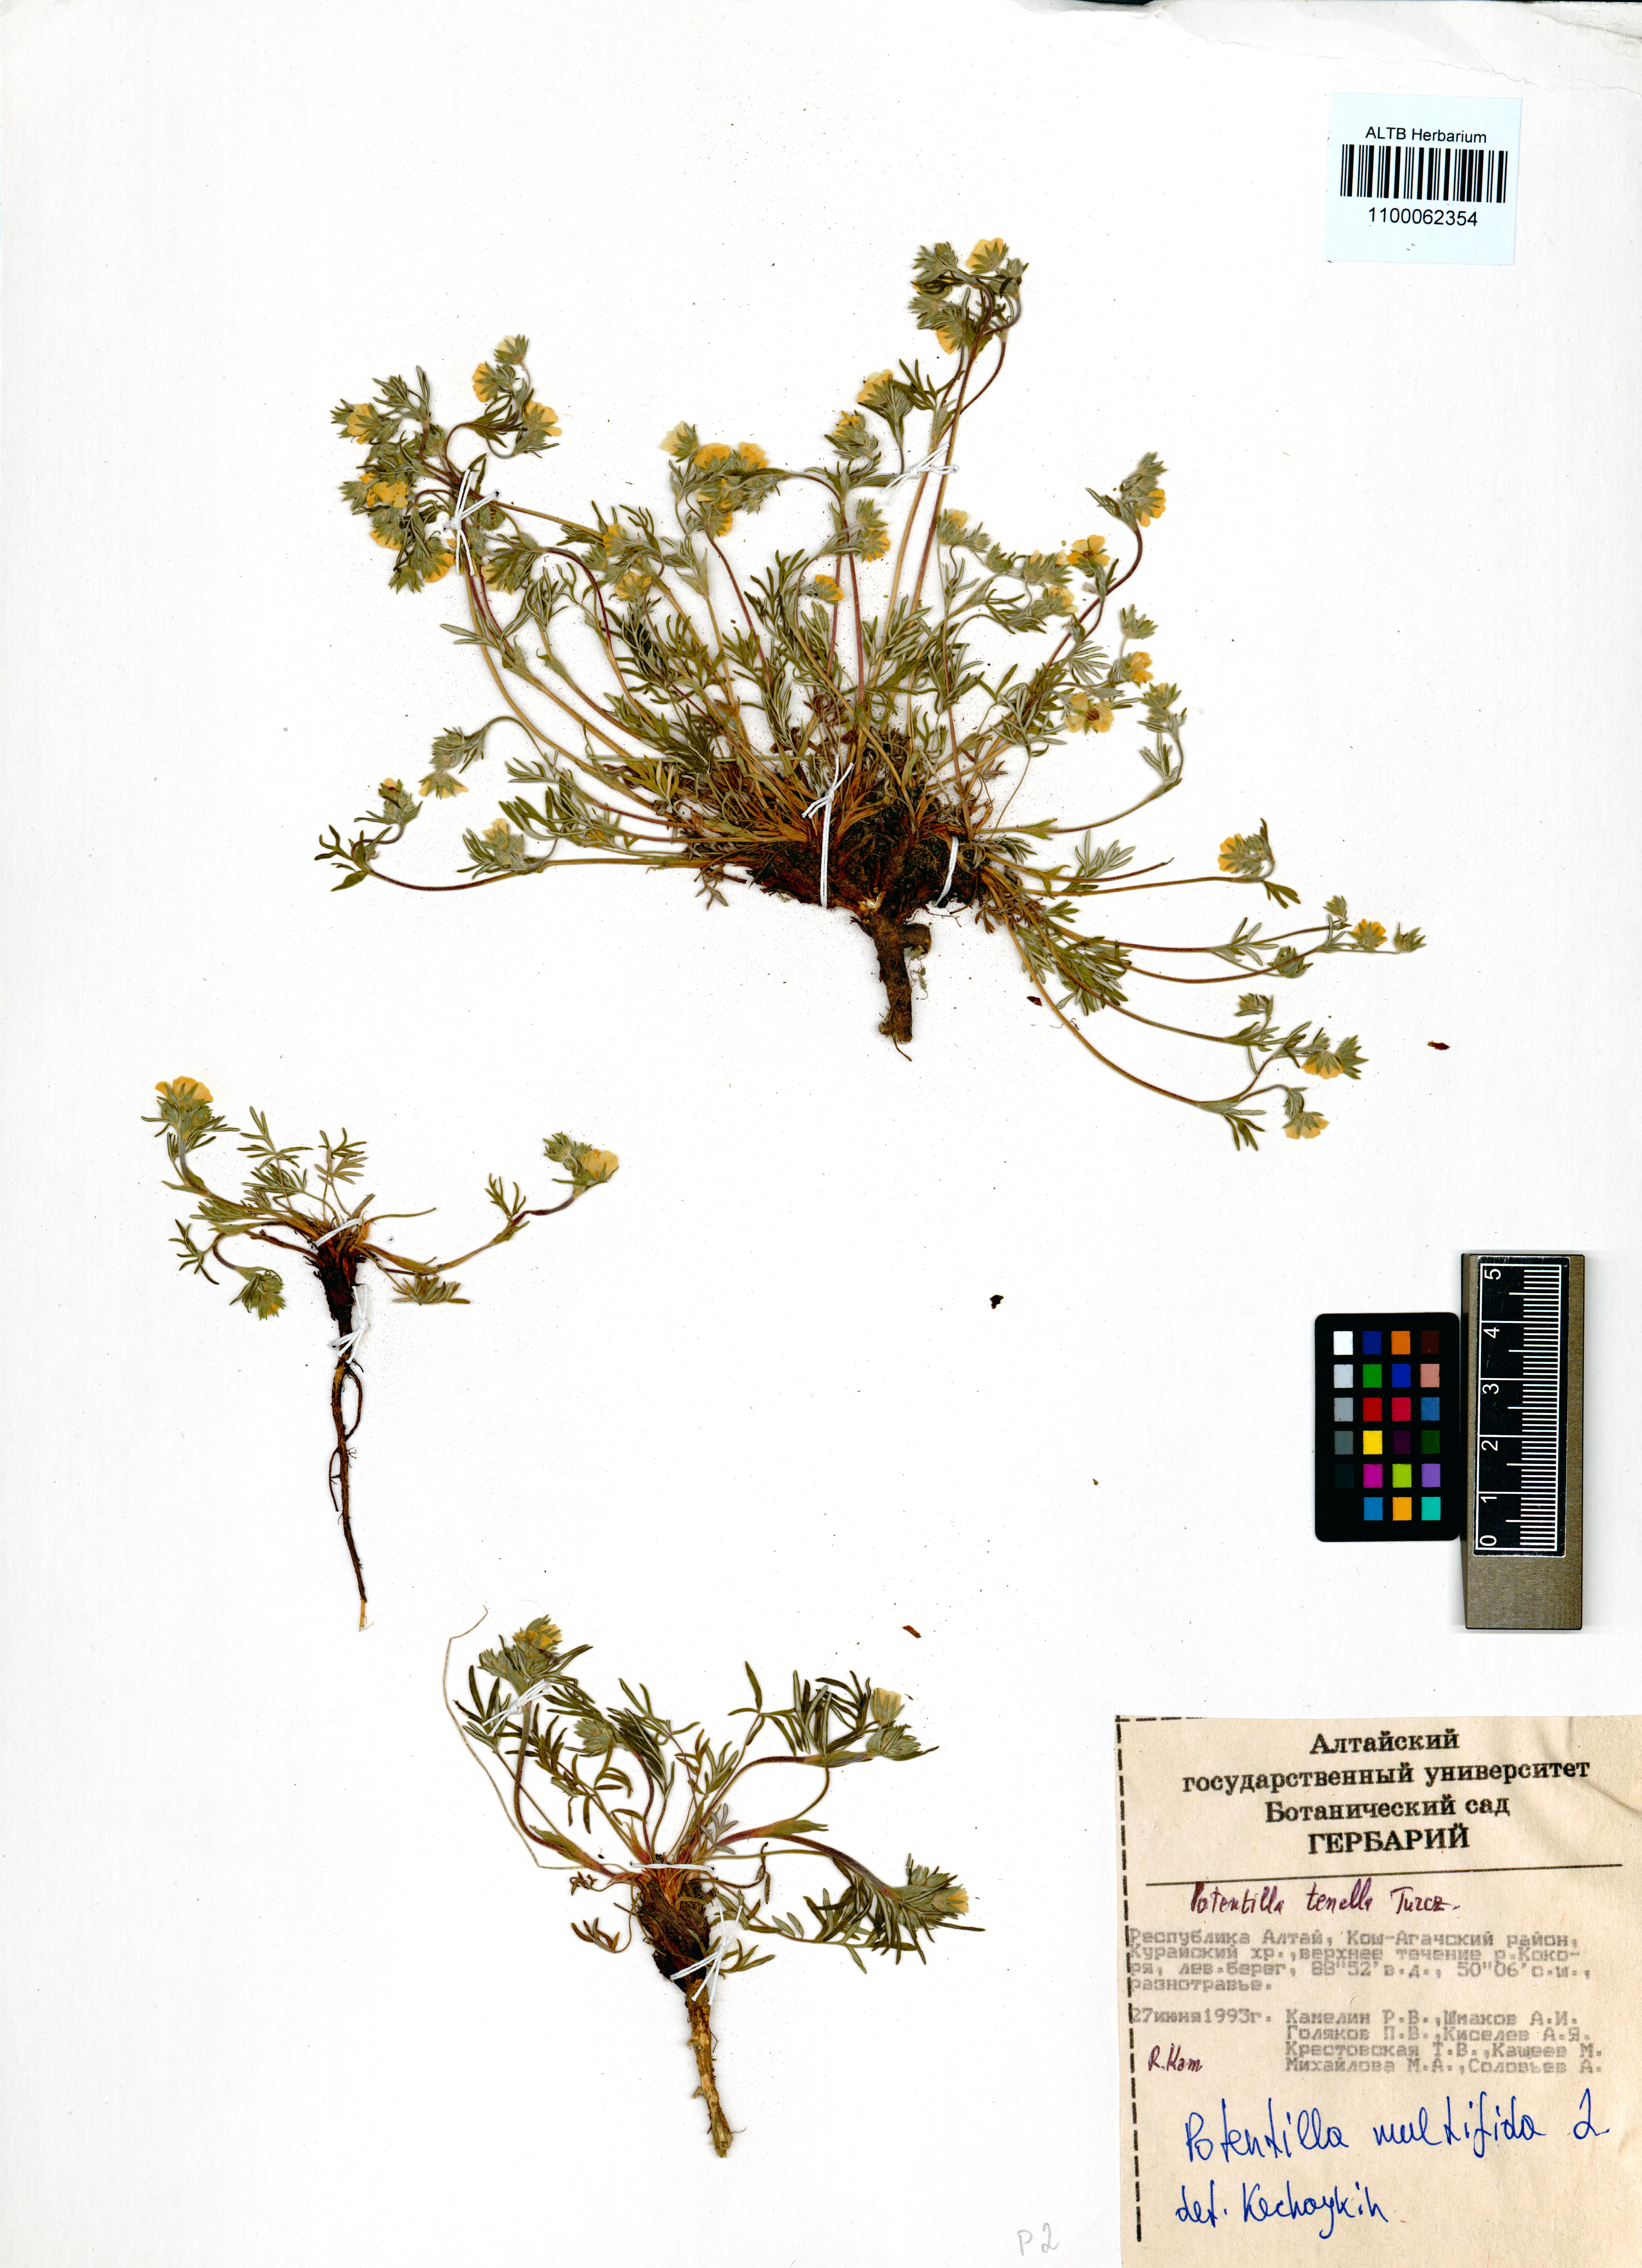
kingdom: Plantae
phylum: Tracheophyta
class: Magnoliopsida
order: Rosales
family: Rosaceae
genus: Potentilla
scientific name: Potentilla multifida
